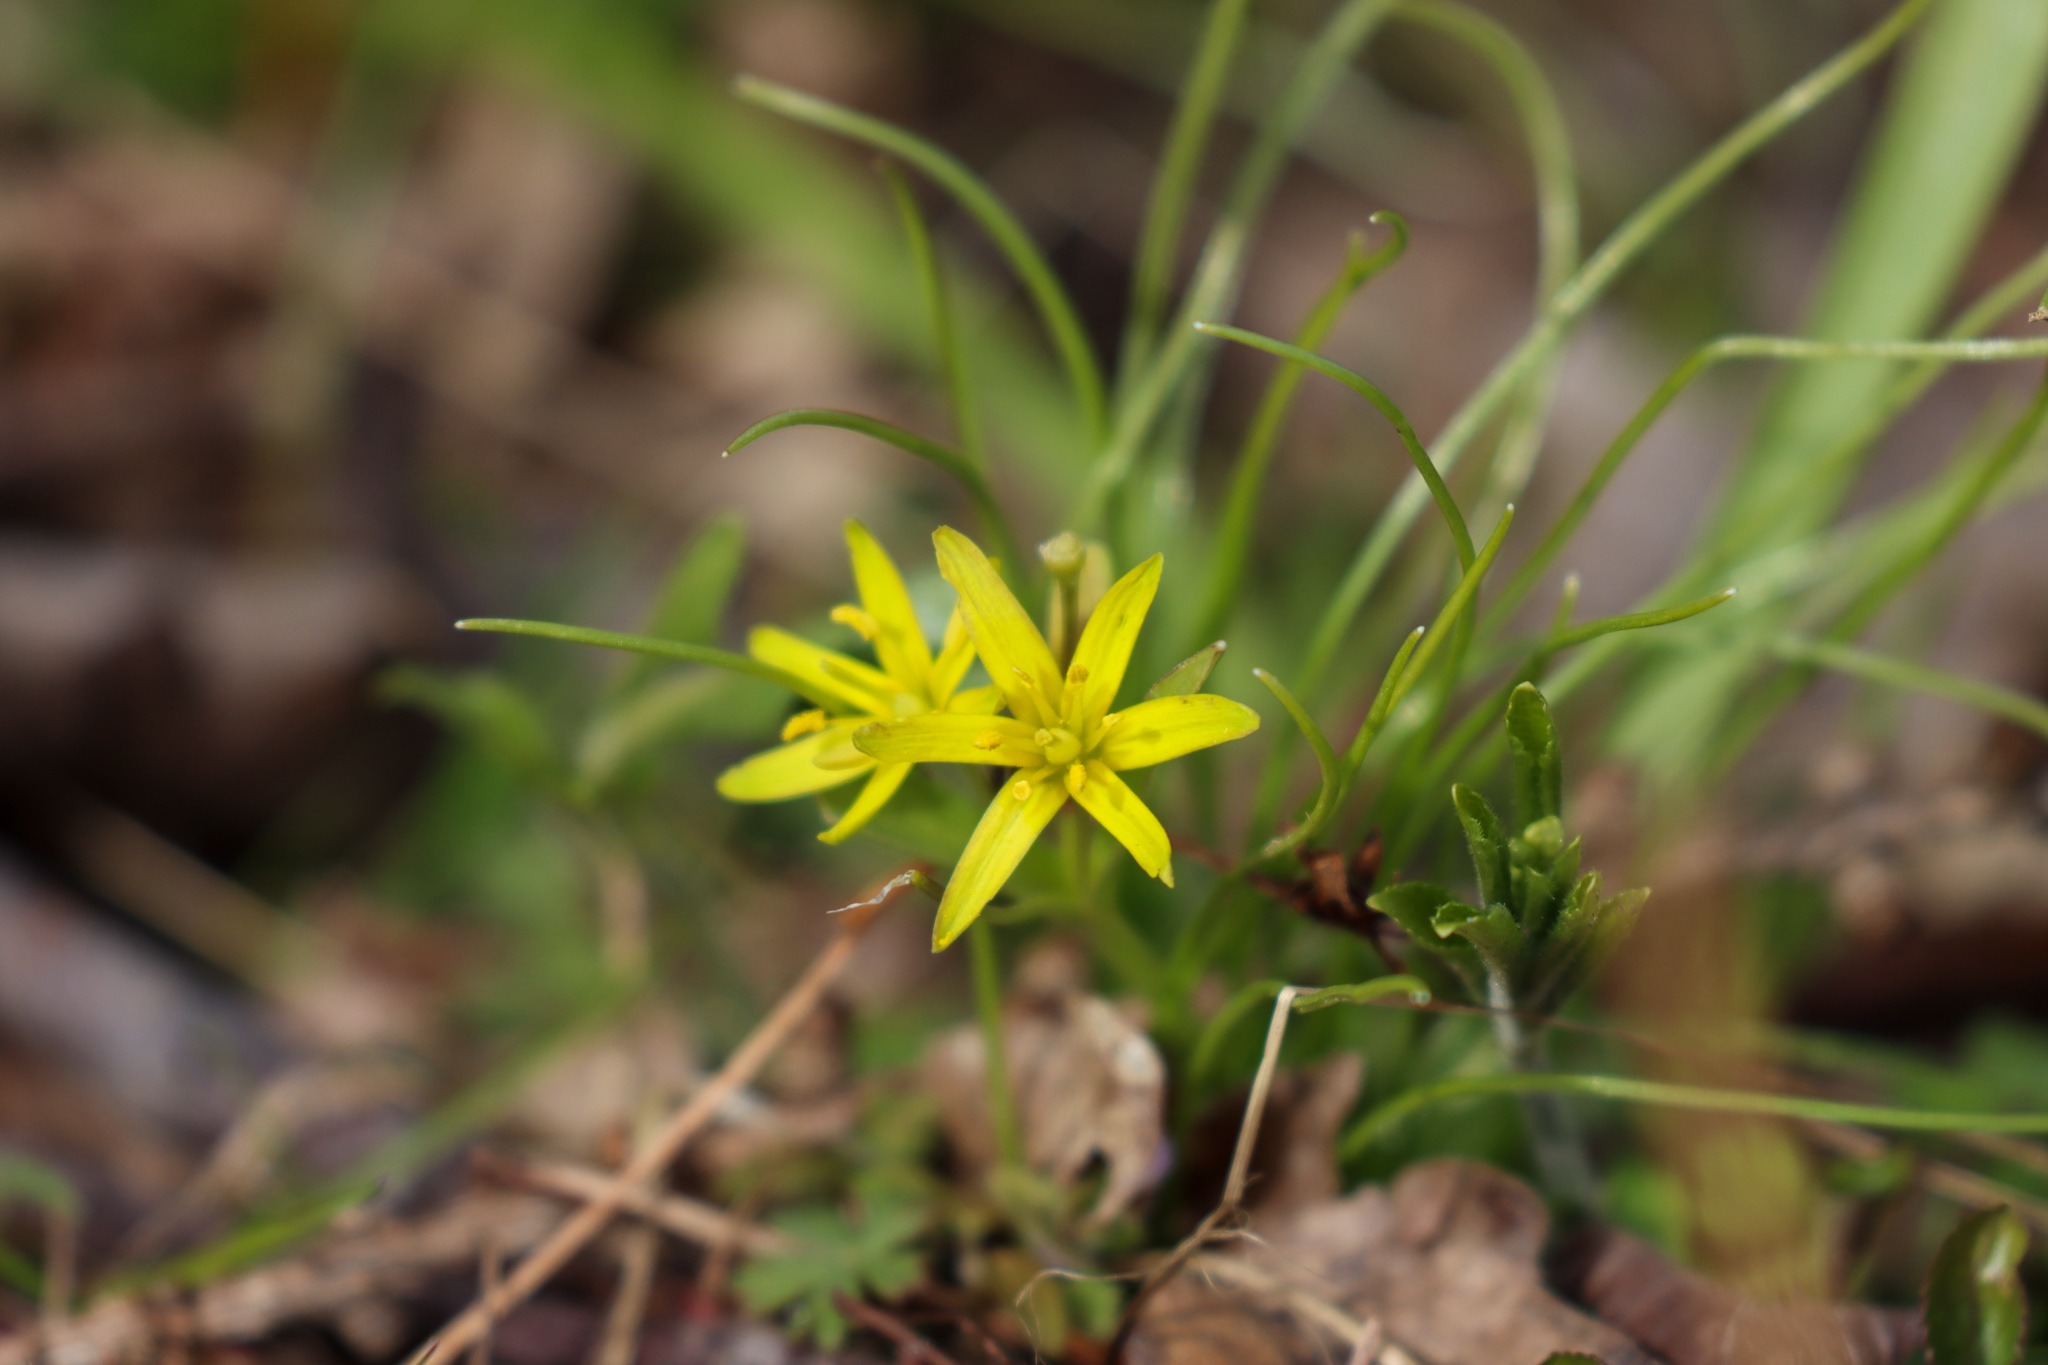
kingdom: Plantae
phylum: Tracheophyta
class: Liliopsida
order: Liliales
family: Liliaceae
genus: Gagea
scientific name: Gagea lutea
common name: Almindelig guldstjerne
